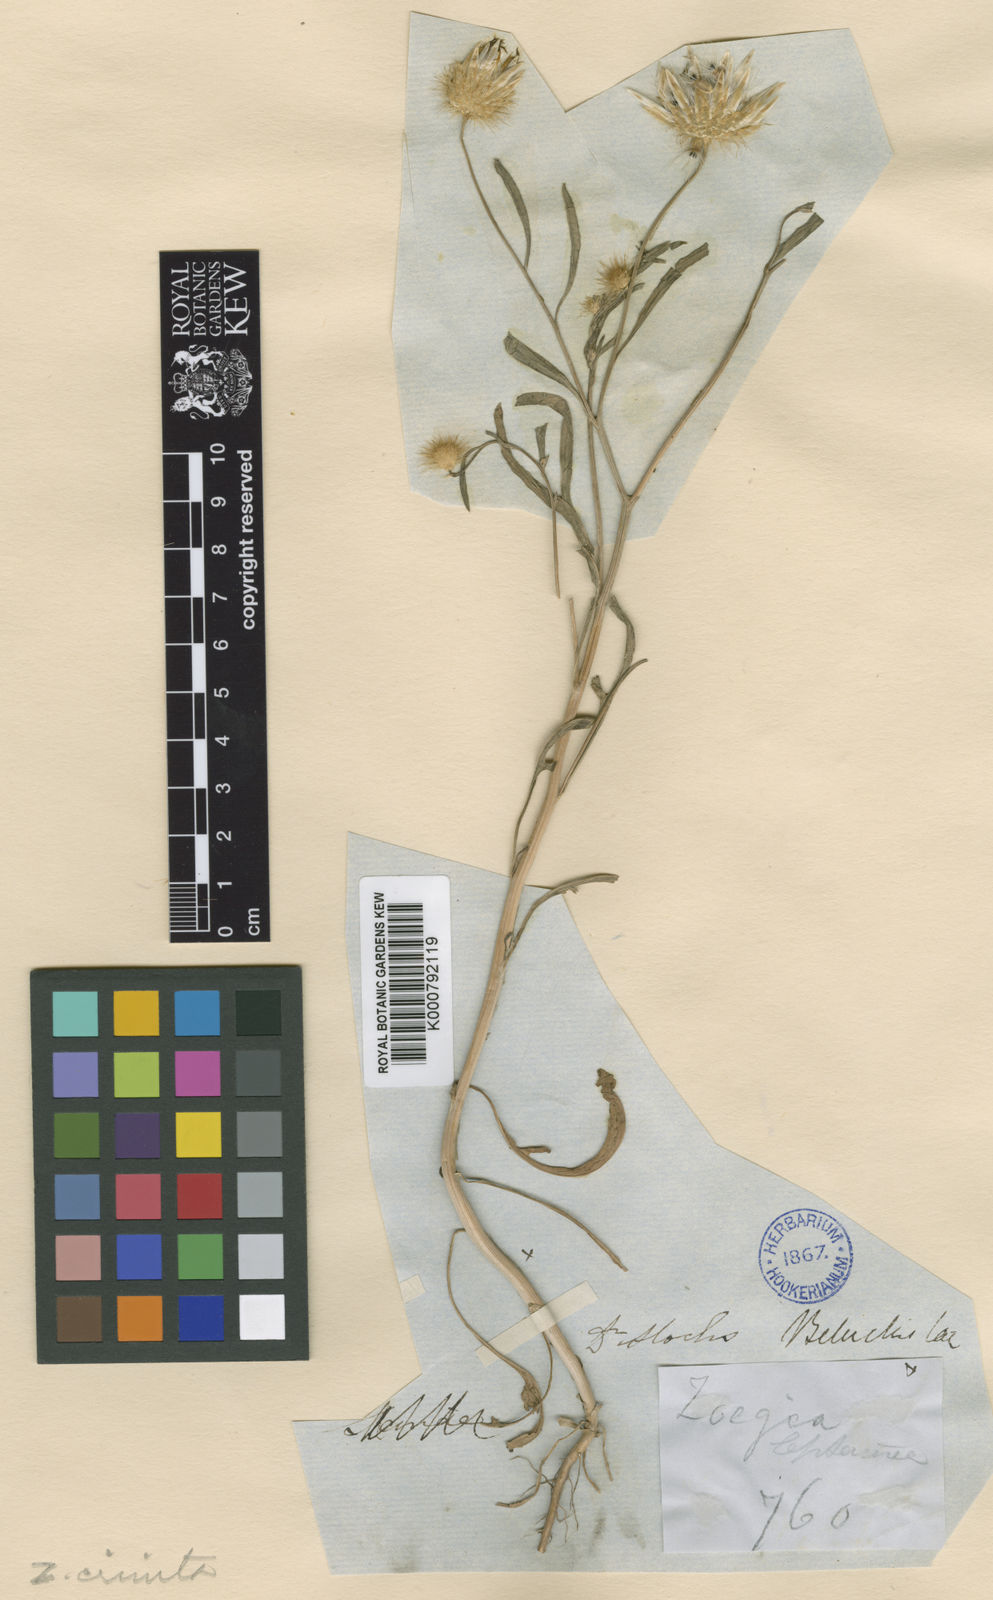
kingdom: Plantae
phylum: Tracheophyta
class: Magnoliopsida
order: Asterales
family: Asteraceae
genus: Zoegea
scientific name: Zoegea crinita
